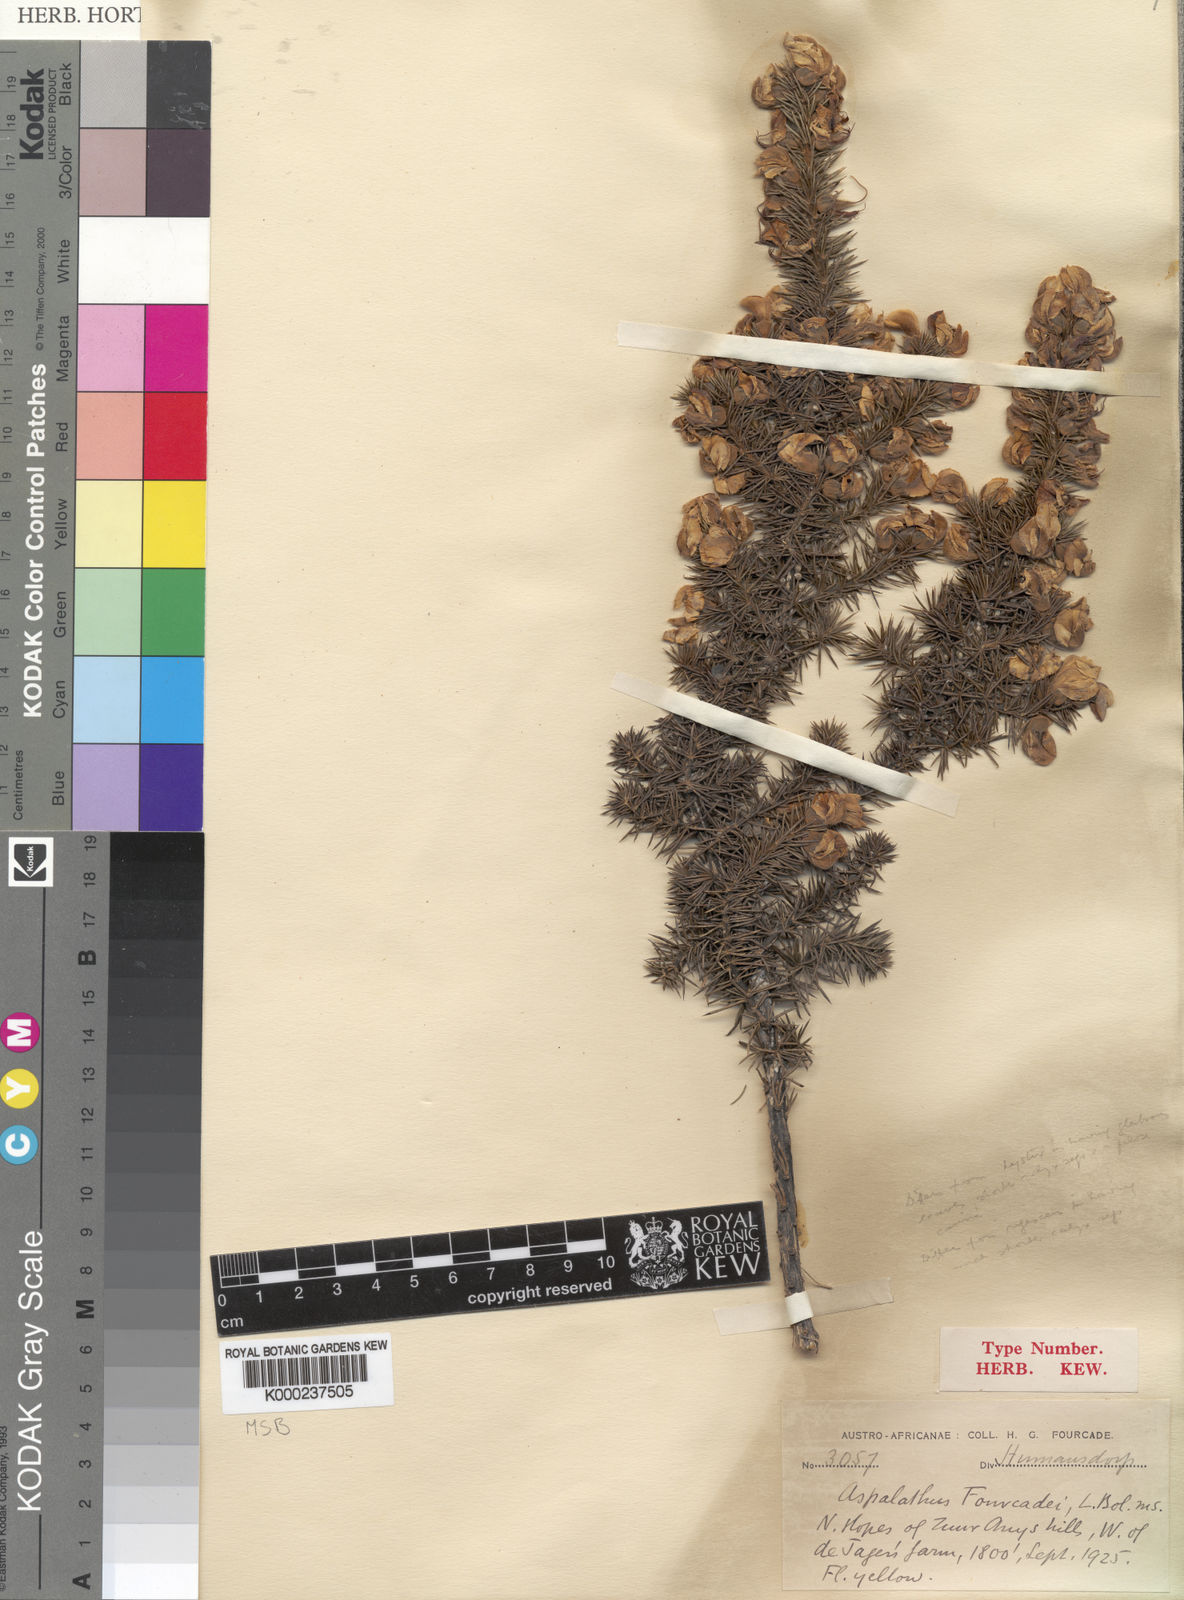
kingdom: Plantae
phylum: Tracheophyta
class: Magnoliopsida
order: Fabales
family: Fabaceae
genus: Aspalathus
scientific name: Aspalathus fourcadei
